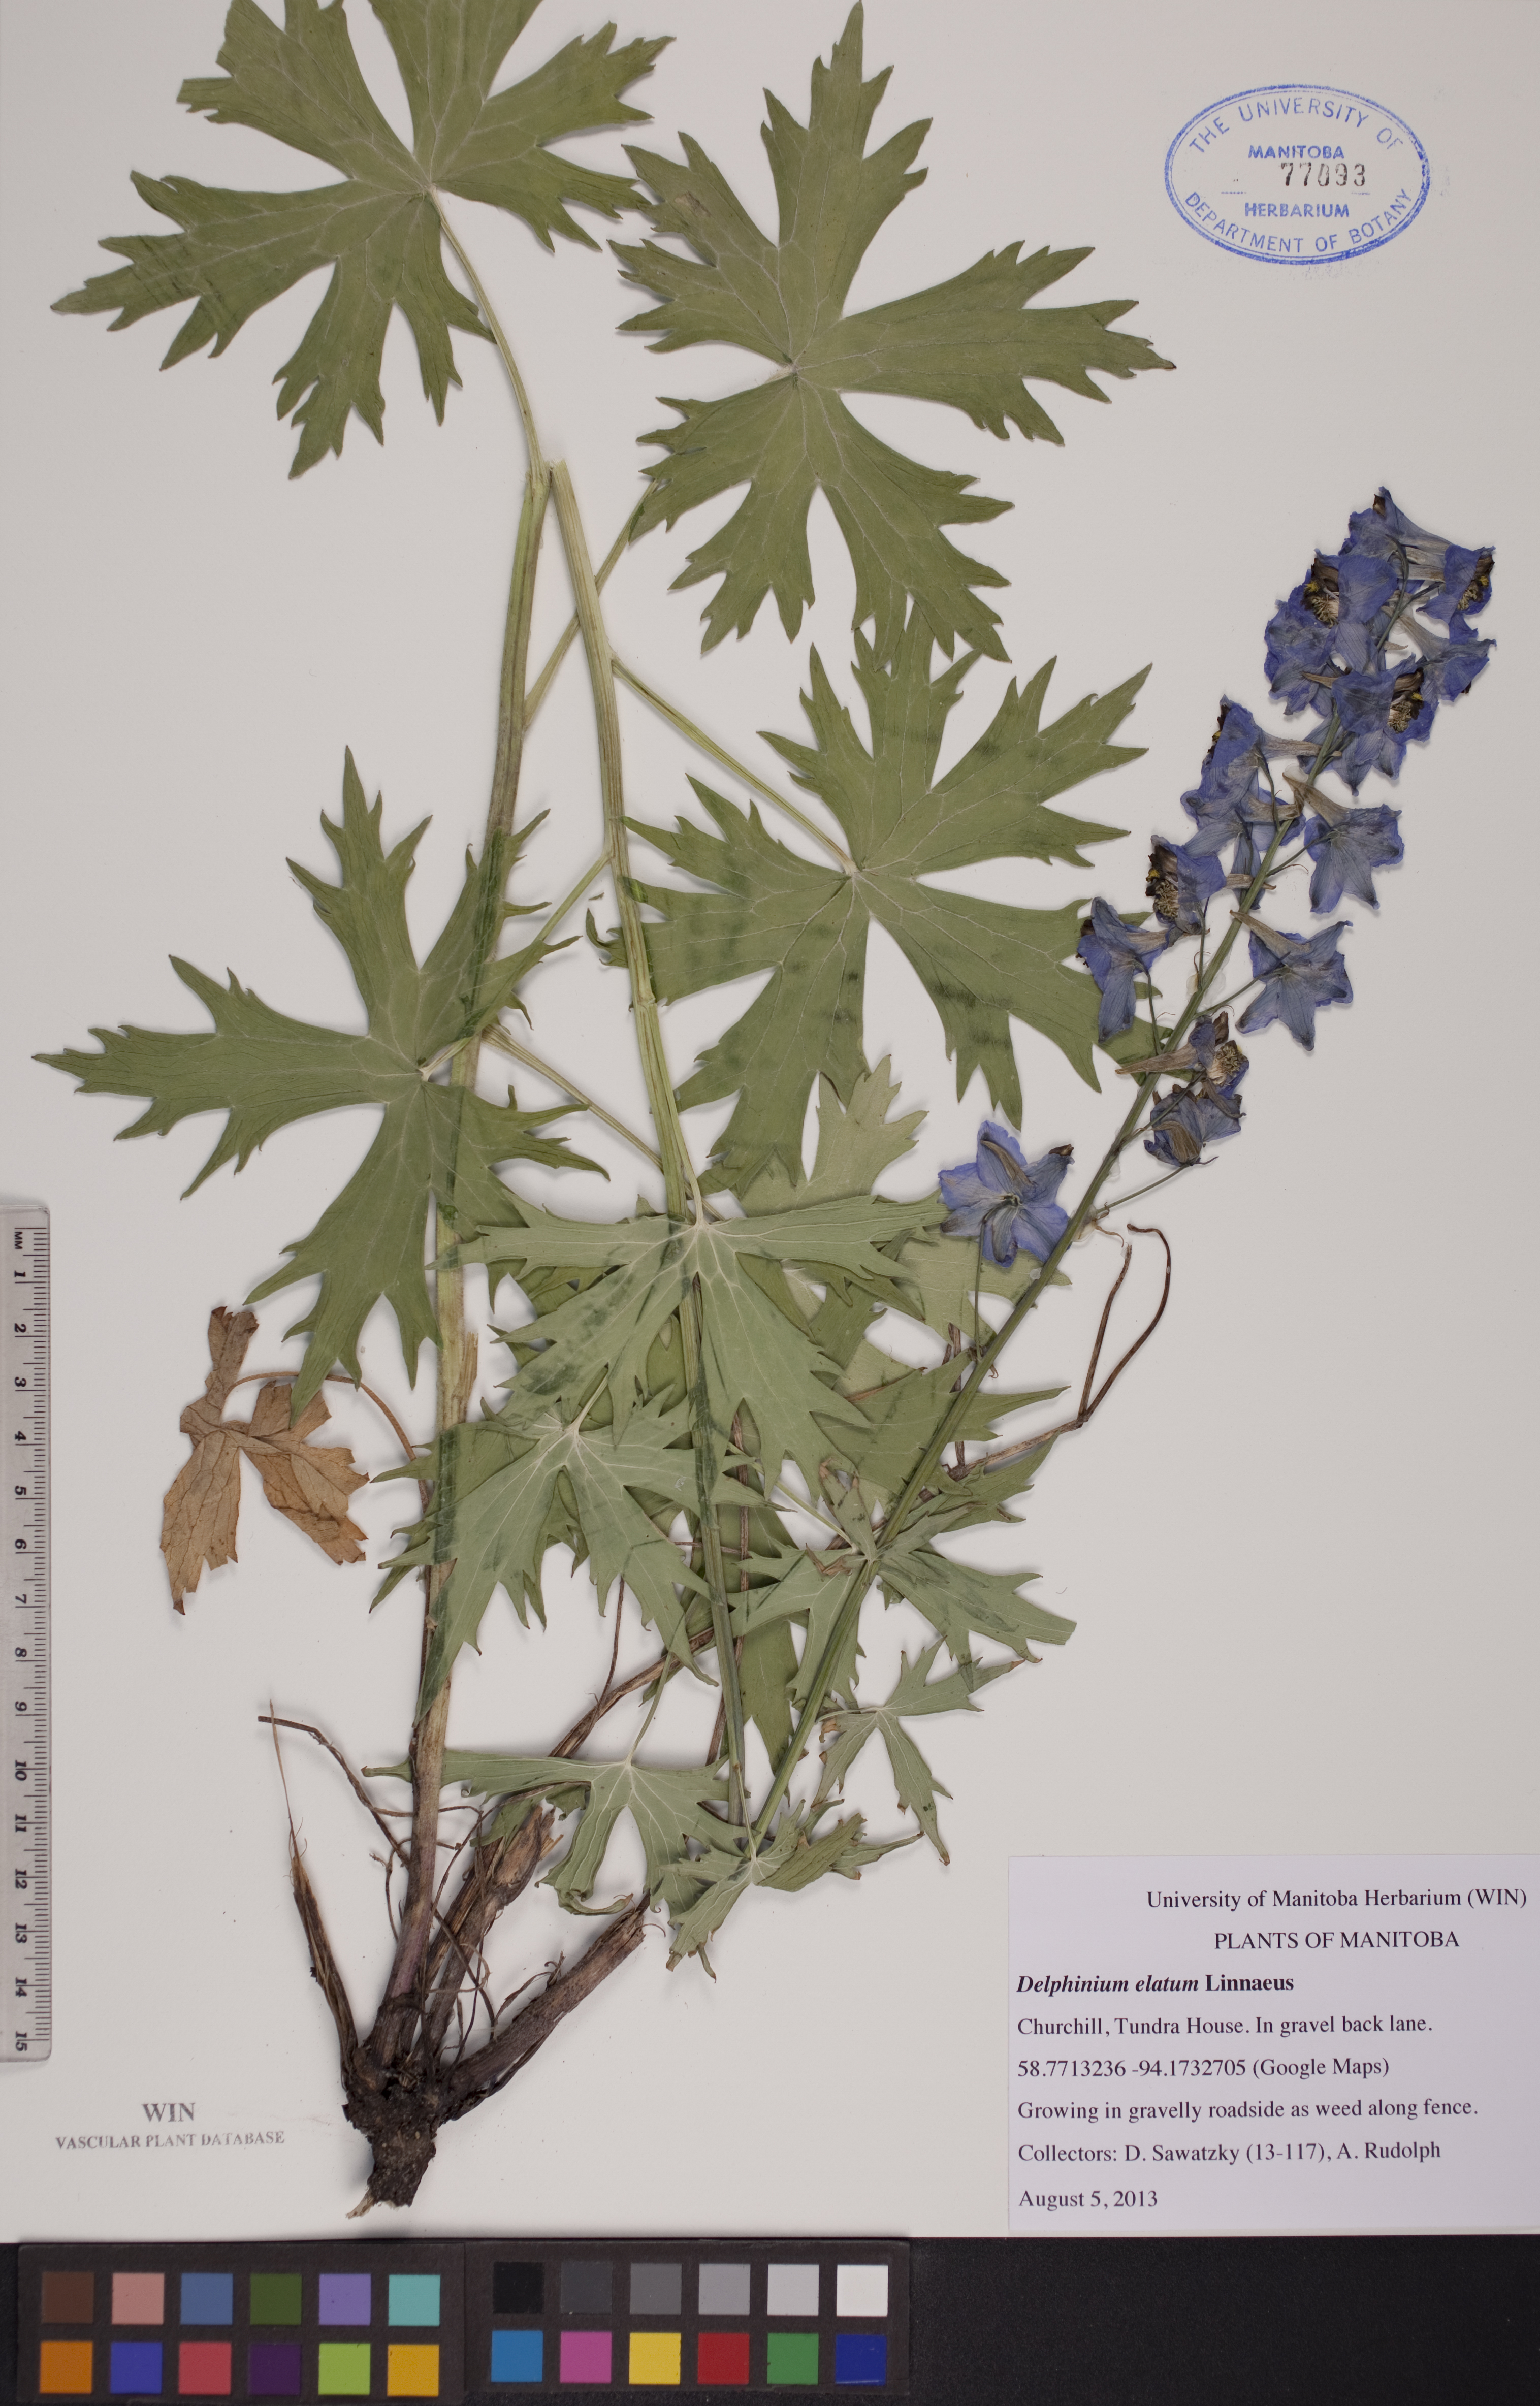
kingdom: Plantae
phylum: Tracheophyta
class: Magnoliopsida
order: Ranunculales
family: Ranunculaceae
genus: Delphinium
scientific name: Delphinium elatum
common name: Candle larkspur
